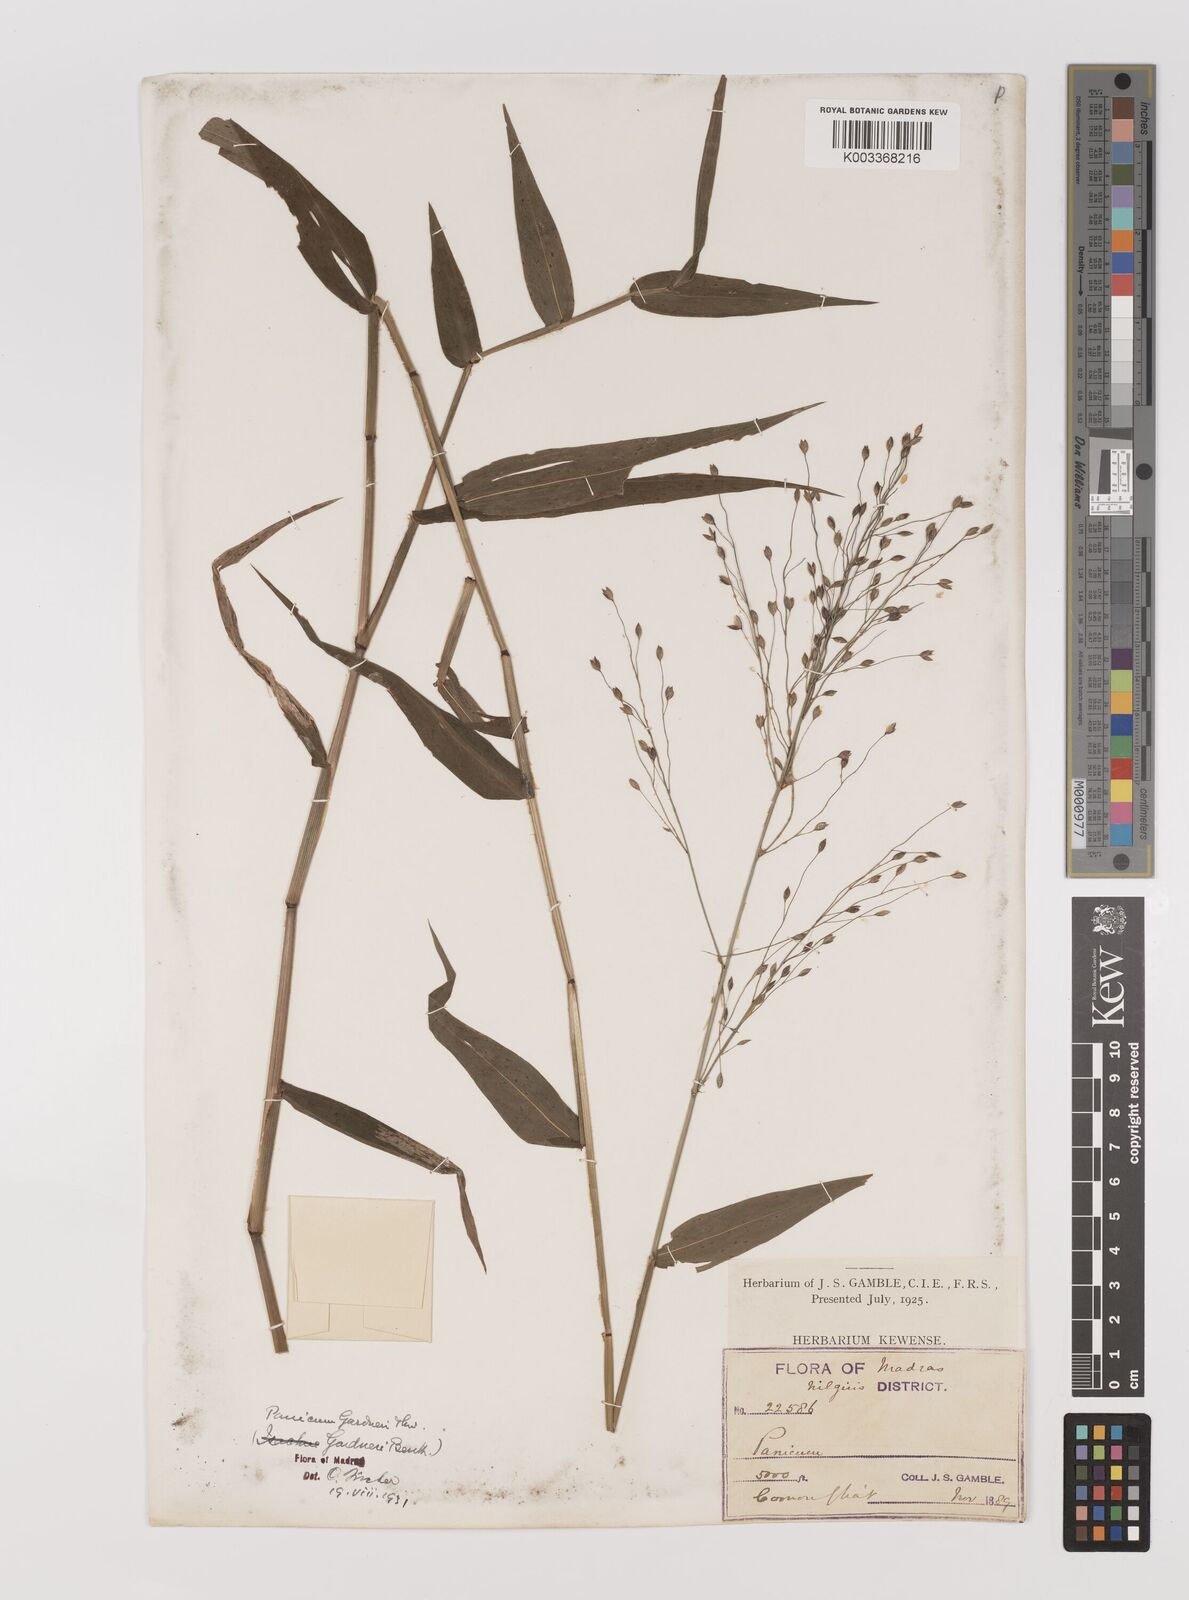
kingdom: Plantae
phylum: Tracheophyta
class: Liliopsida
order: Poales
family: Poaceae
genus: Panicum
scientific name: Panicum gardneri
